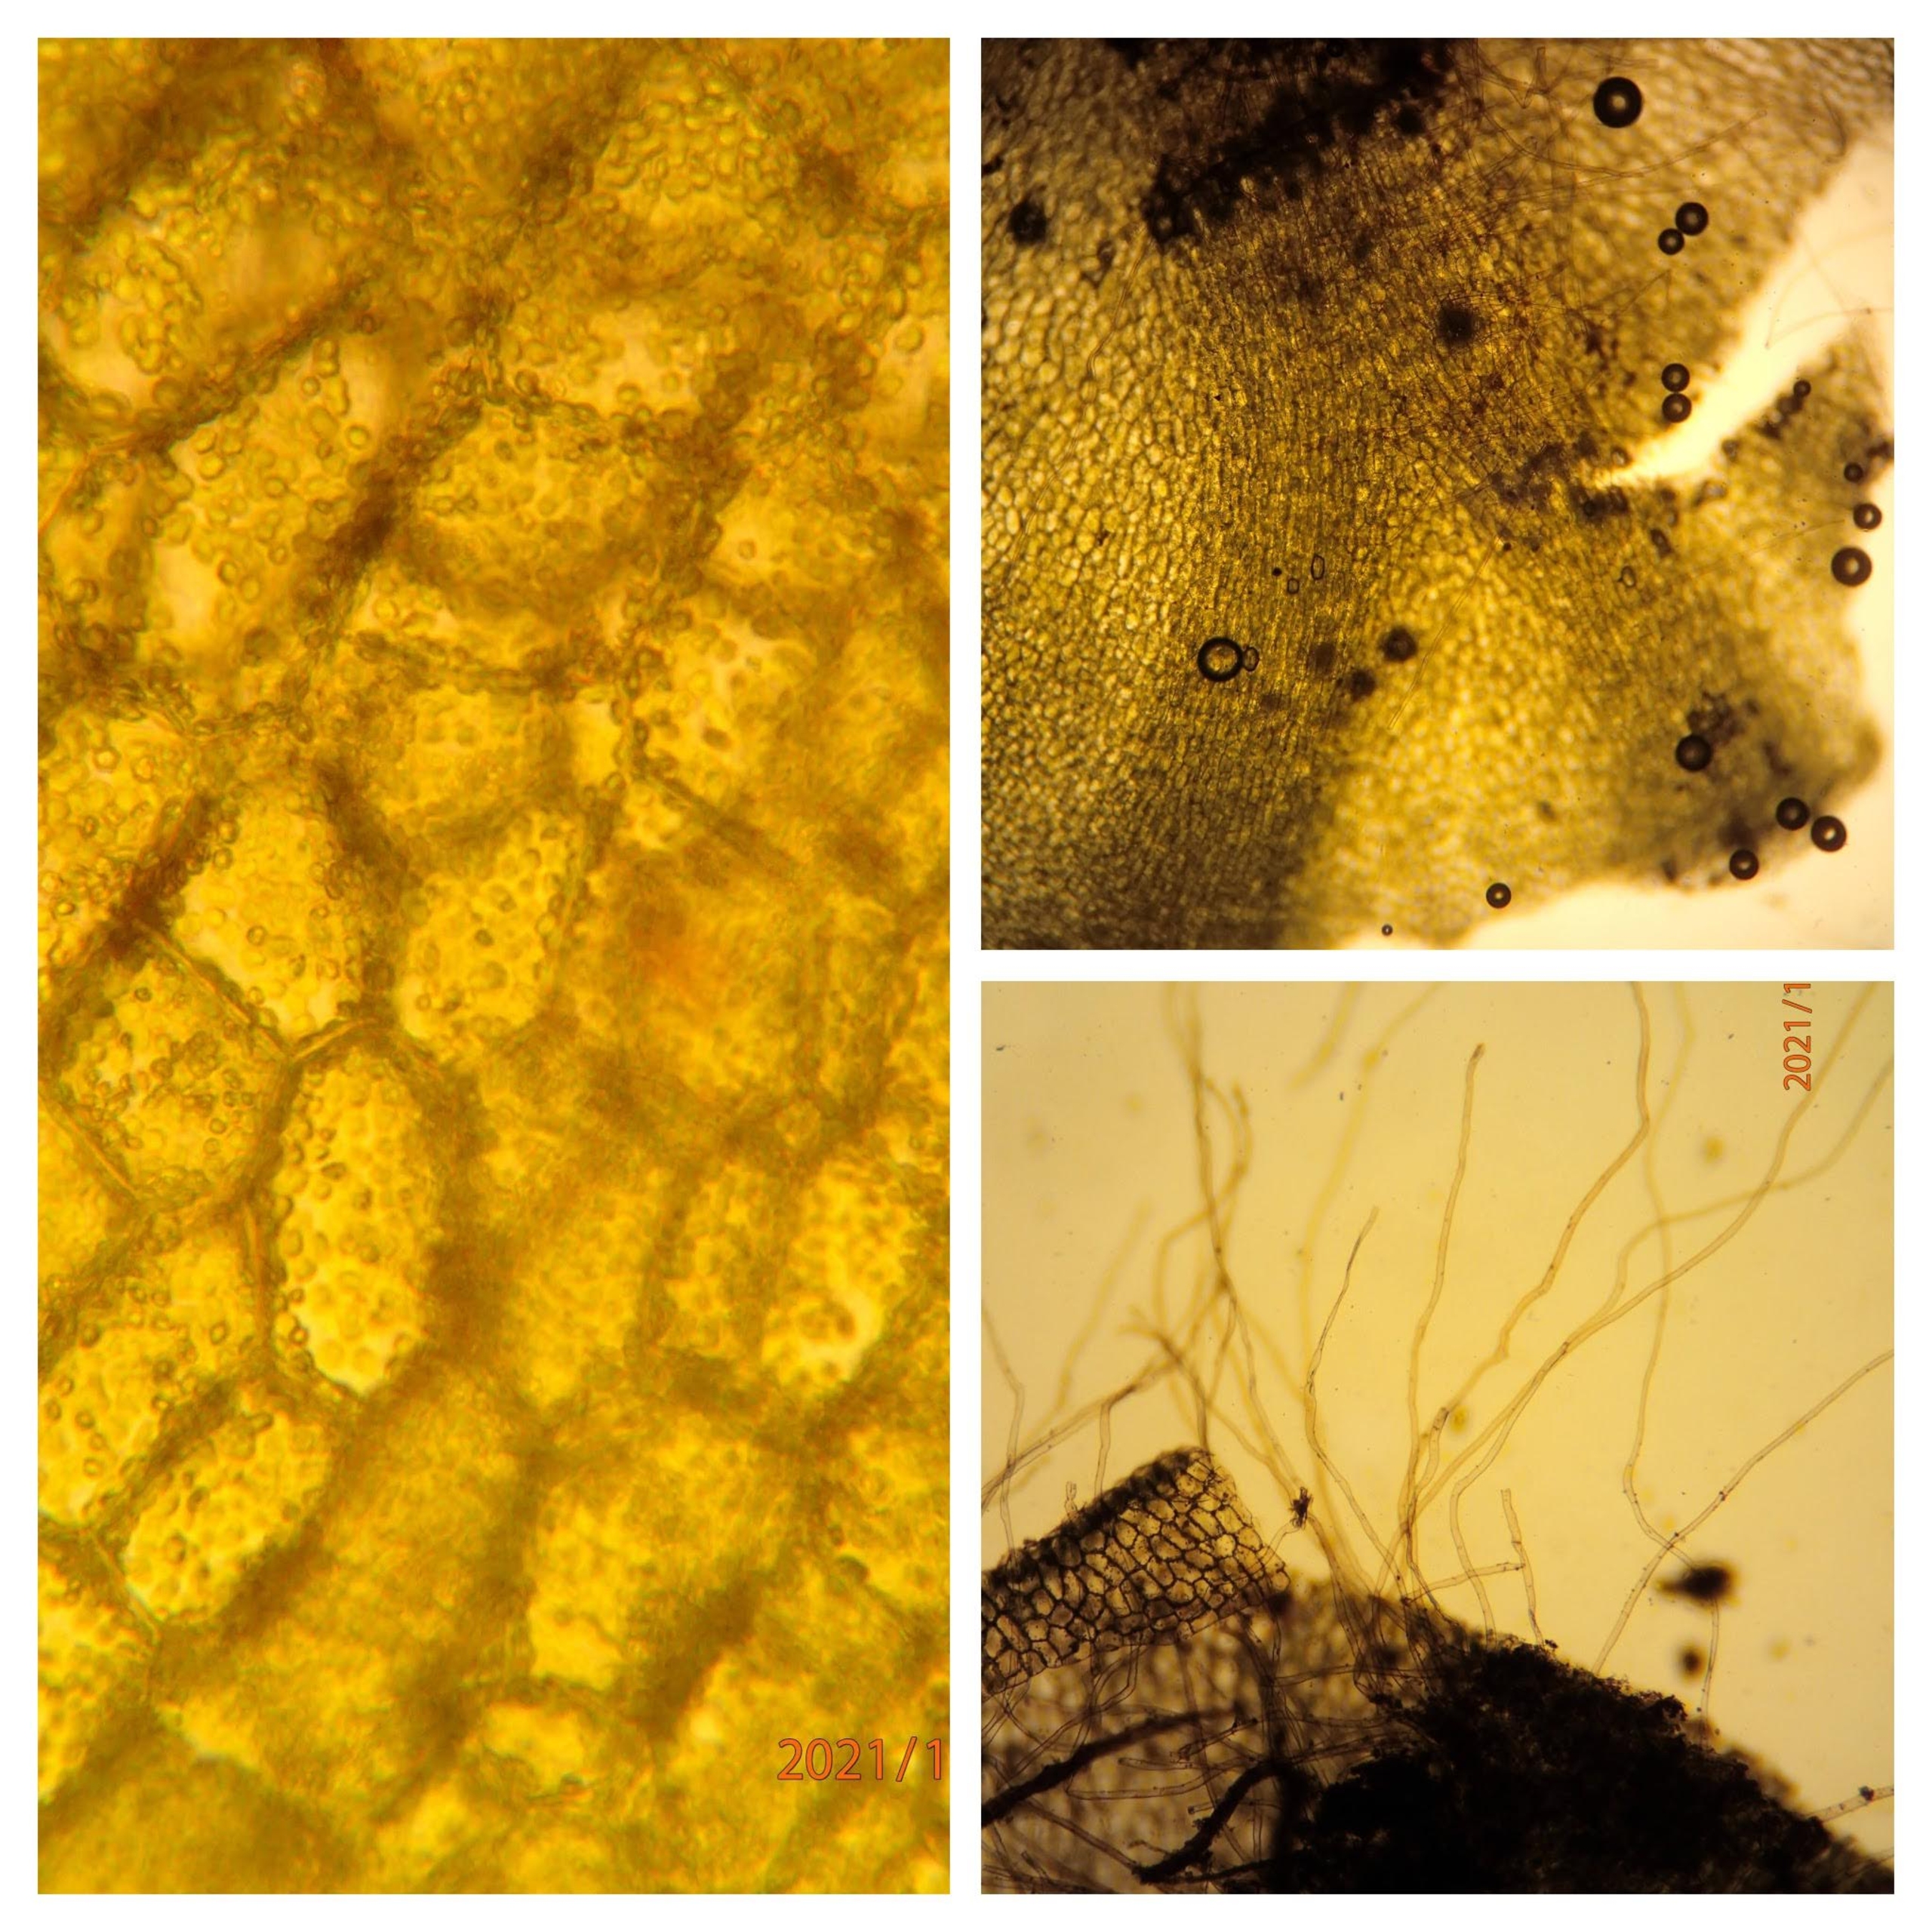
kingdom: Plantae
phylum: Marchantiophyta
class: Jungermanniopsida
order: Pelliales
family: Pelliaceae
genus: Apopellia
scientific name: Apopellia endiviifolia
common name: Fliget ribbeløv
